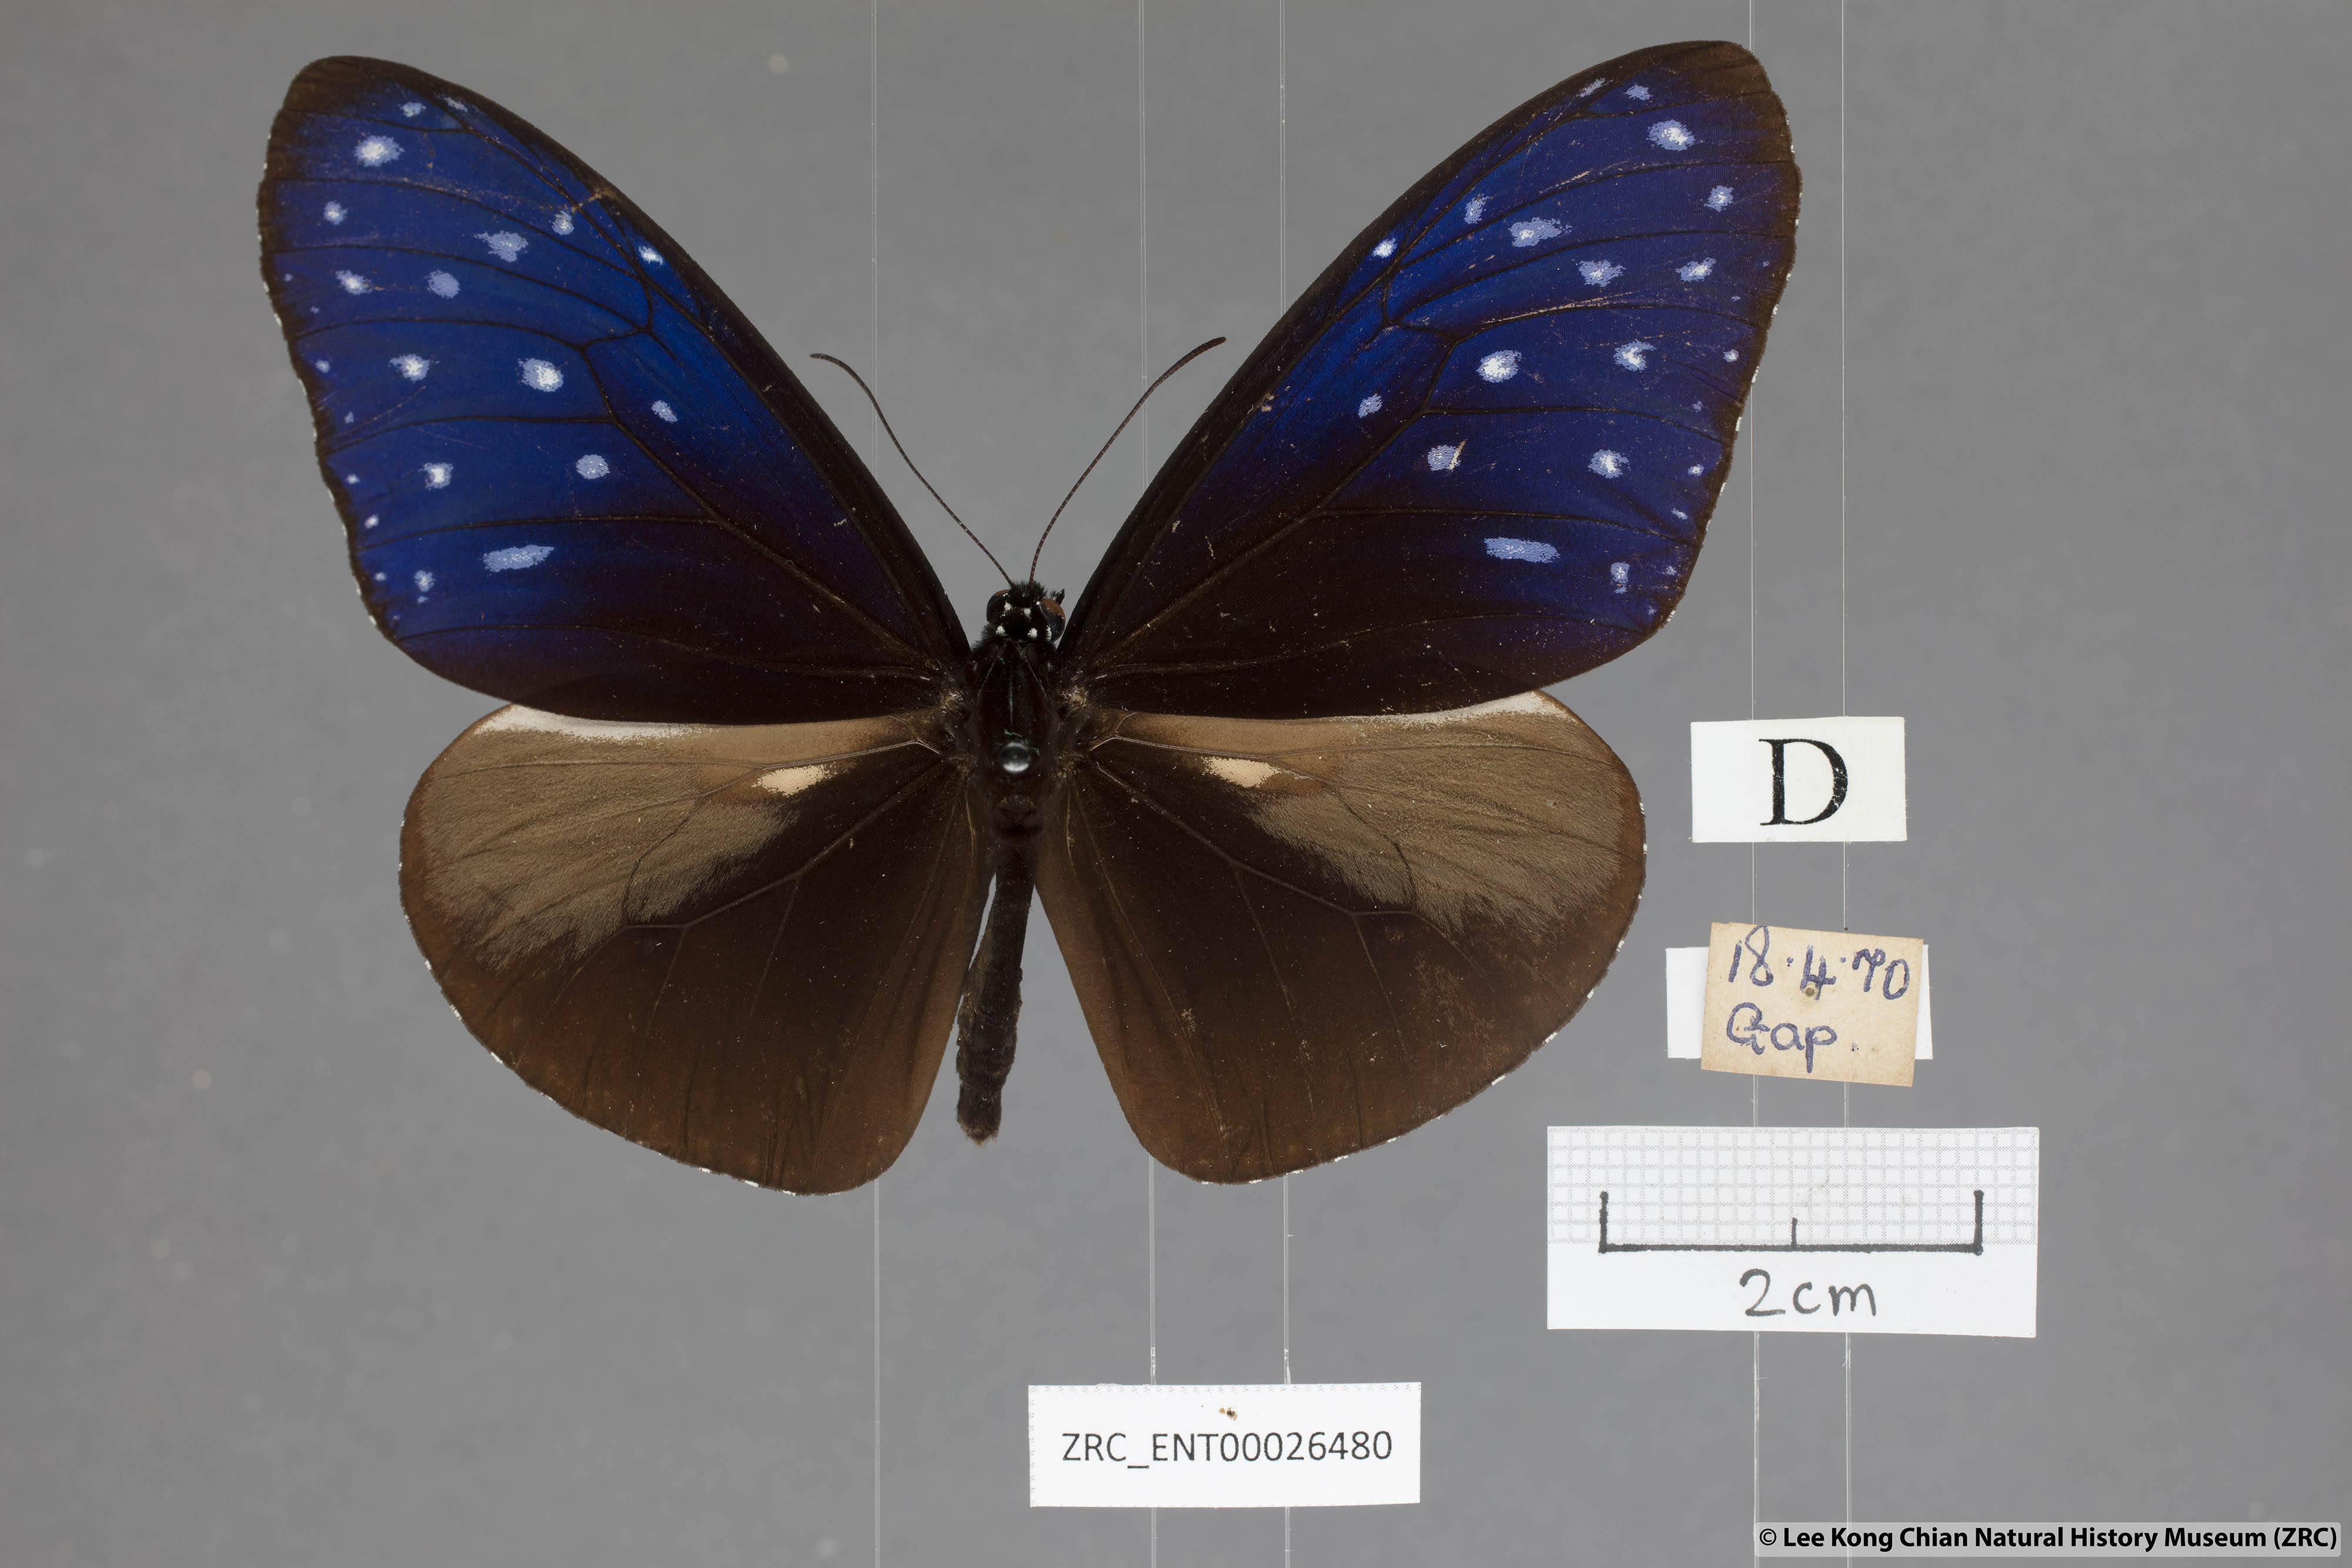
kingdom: Animalia
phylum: Arthropoda
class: Insecta
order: Lepidoptera
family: Nymphalidae
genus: Euploea
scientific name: Euploea mulciber
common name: Striped blue crow butterfly
